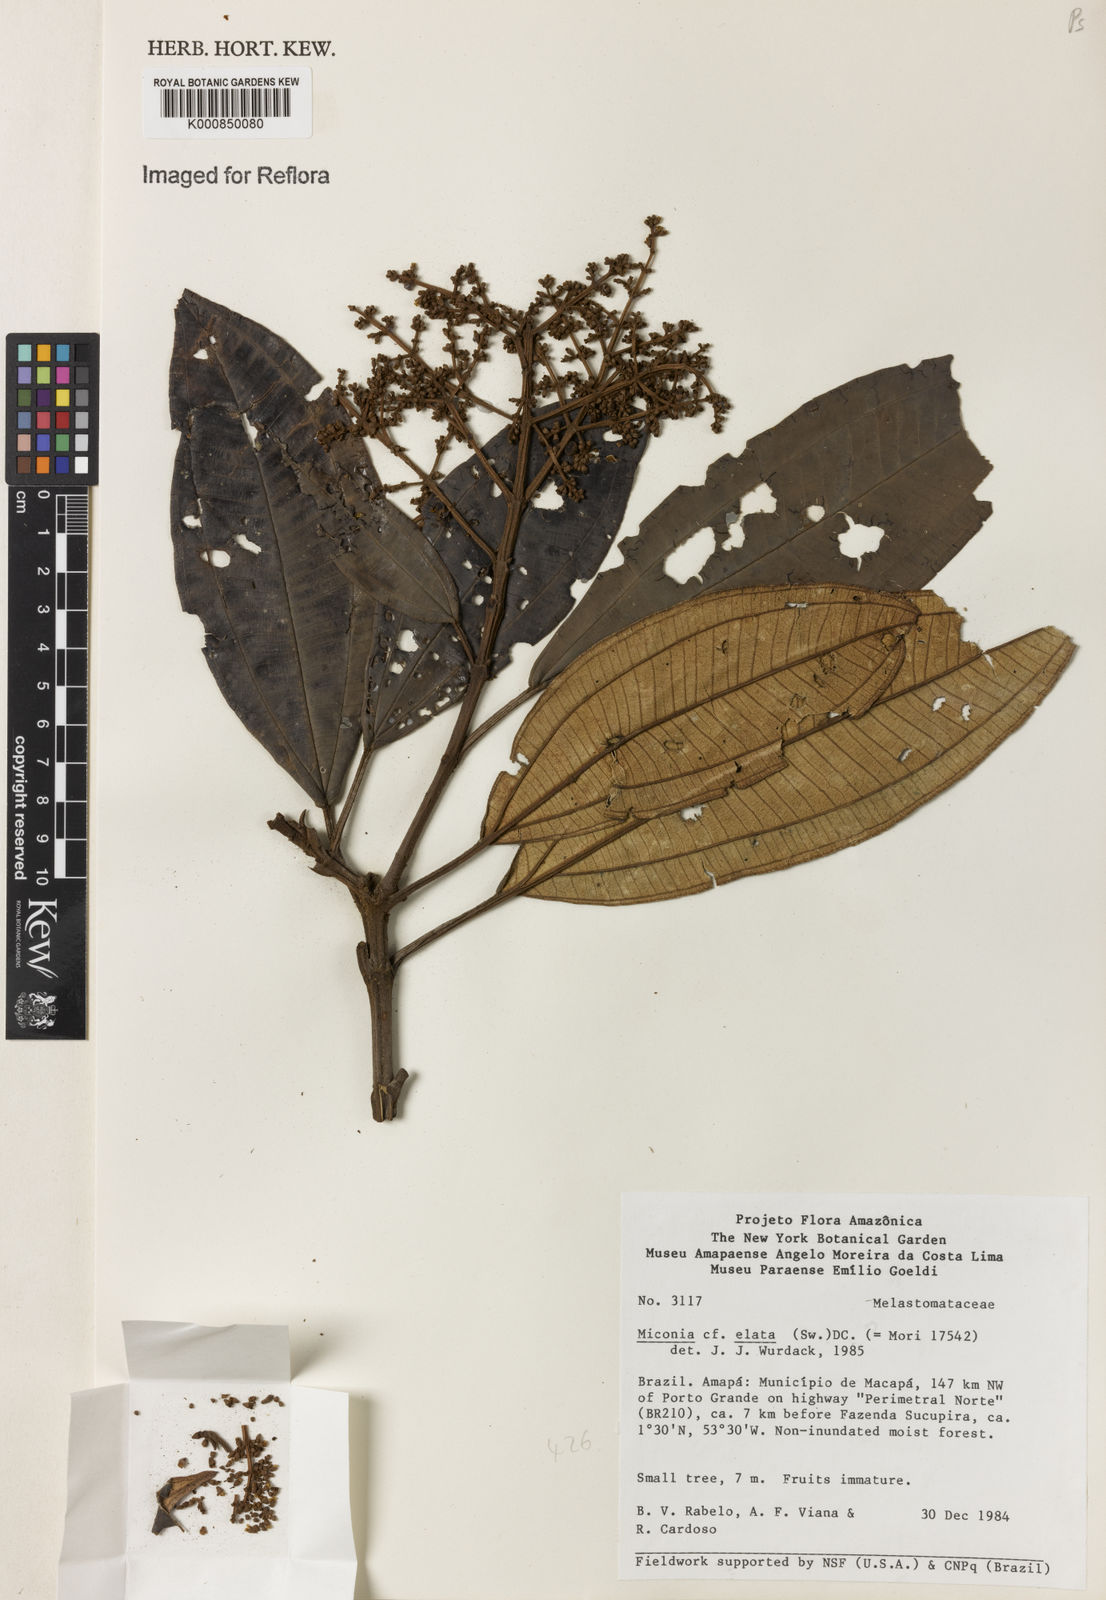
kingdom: Plantae
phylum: Tracheophyta
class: Magnoliopsida
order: Myrtales
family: Melastomataceae
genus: Miconia
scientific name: Miconia elata
